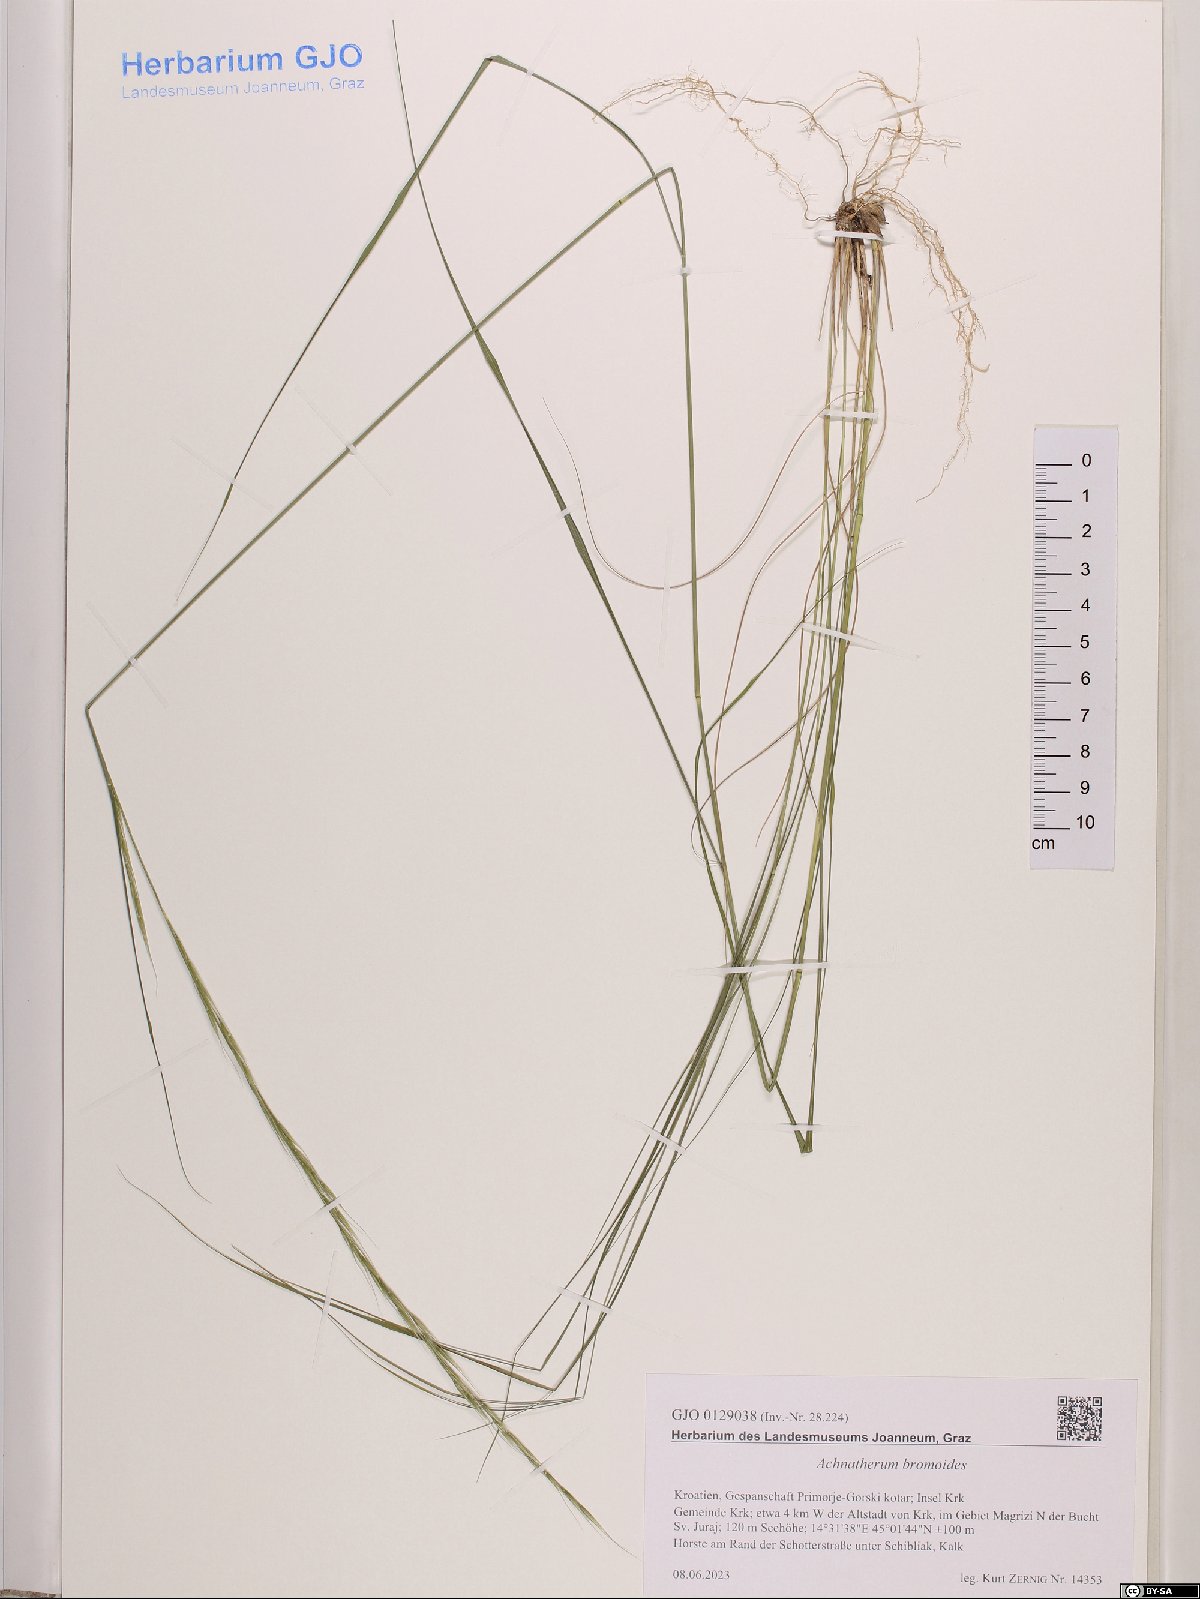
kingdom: Plantae
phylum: Tracheophyta
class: Liliopsida
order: Poales
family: Poaceae
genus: Achnatherum
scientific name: Achnatherum bromoides
